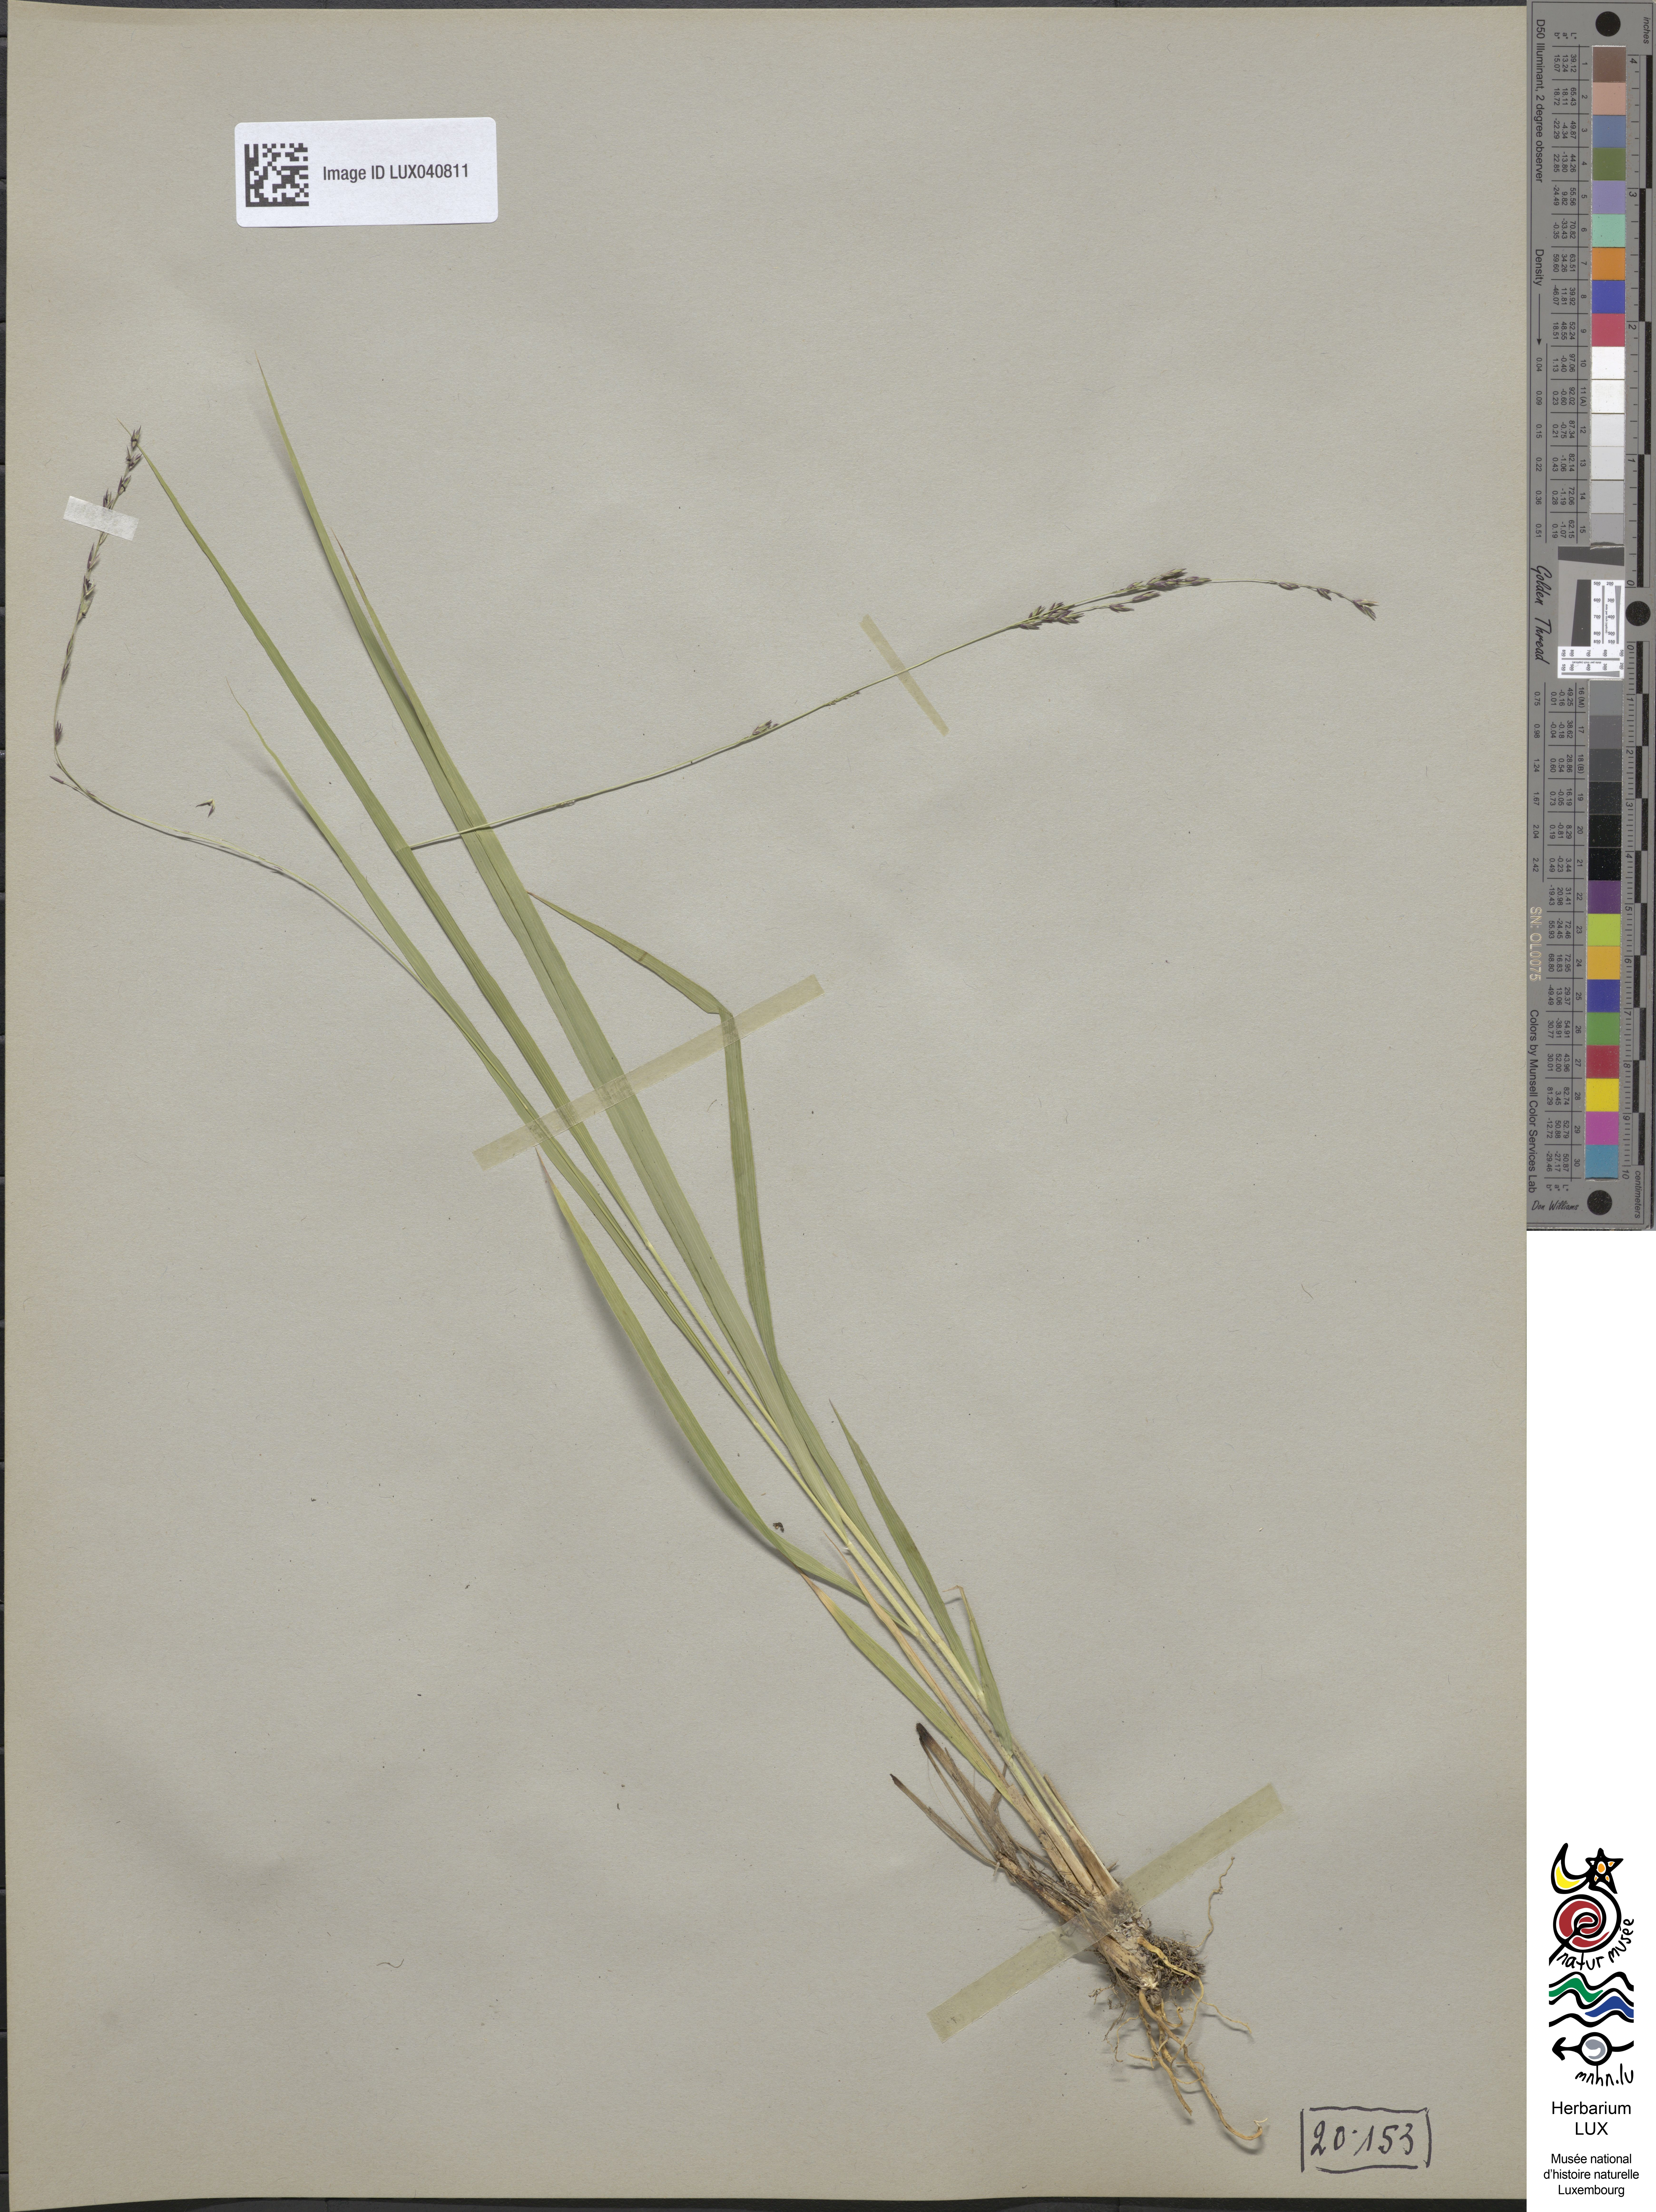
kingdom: Plantae
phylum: Tracheophyta
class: Liliopsida
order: Poales
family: Poaceae
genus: Molinia
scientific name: Molinia caerulea
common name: Purple moor-grass
